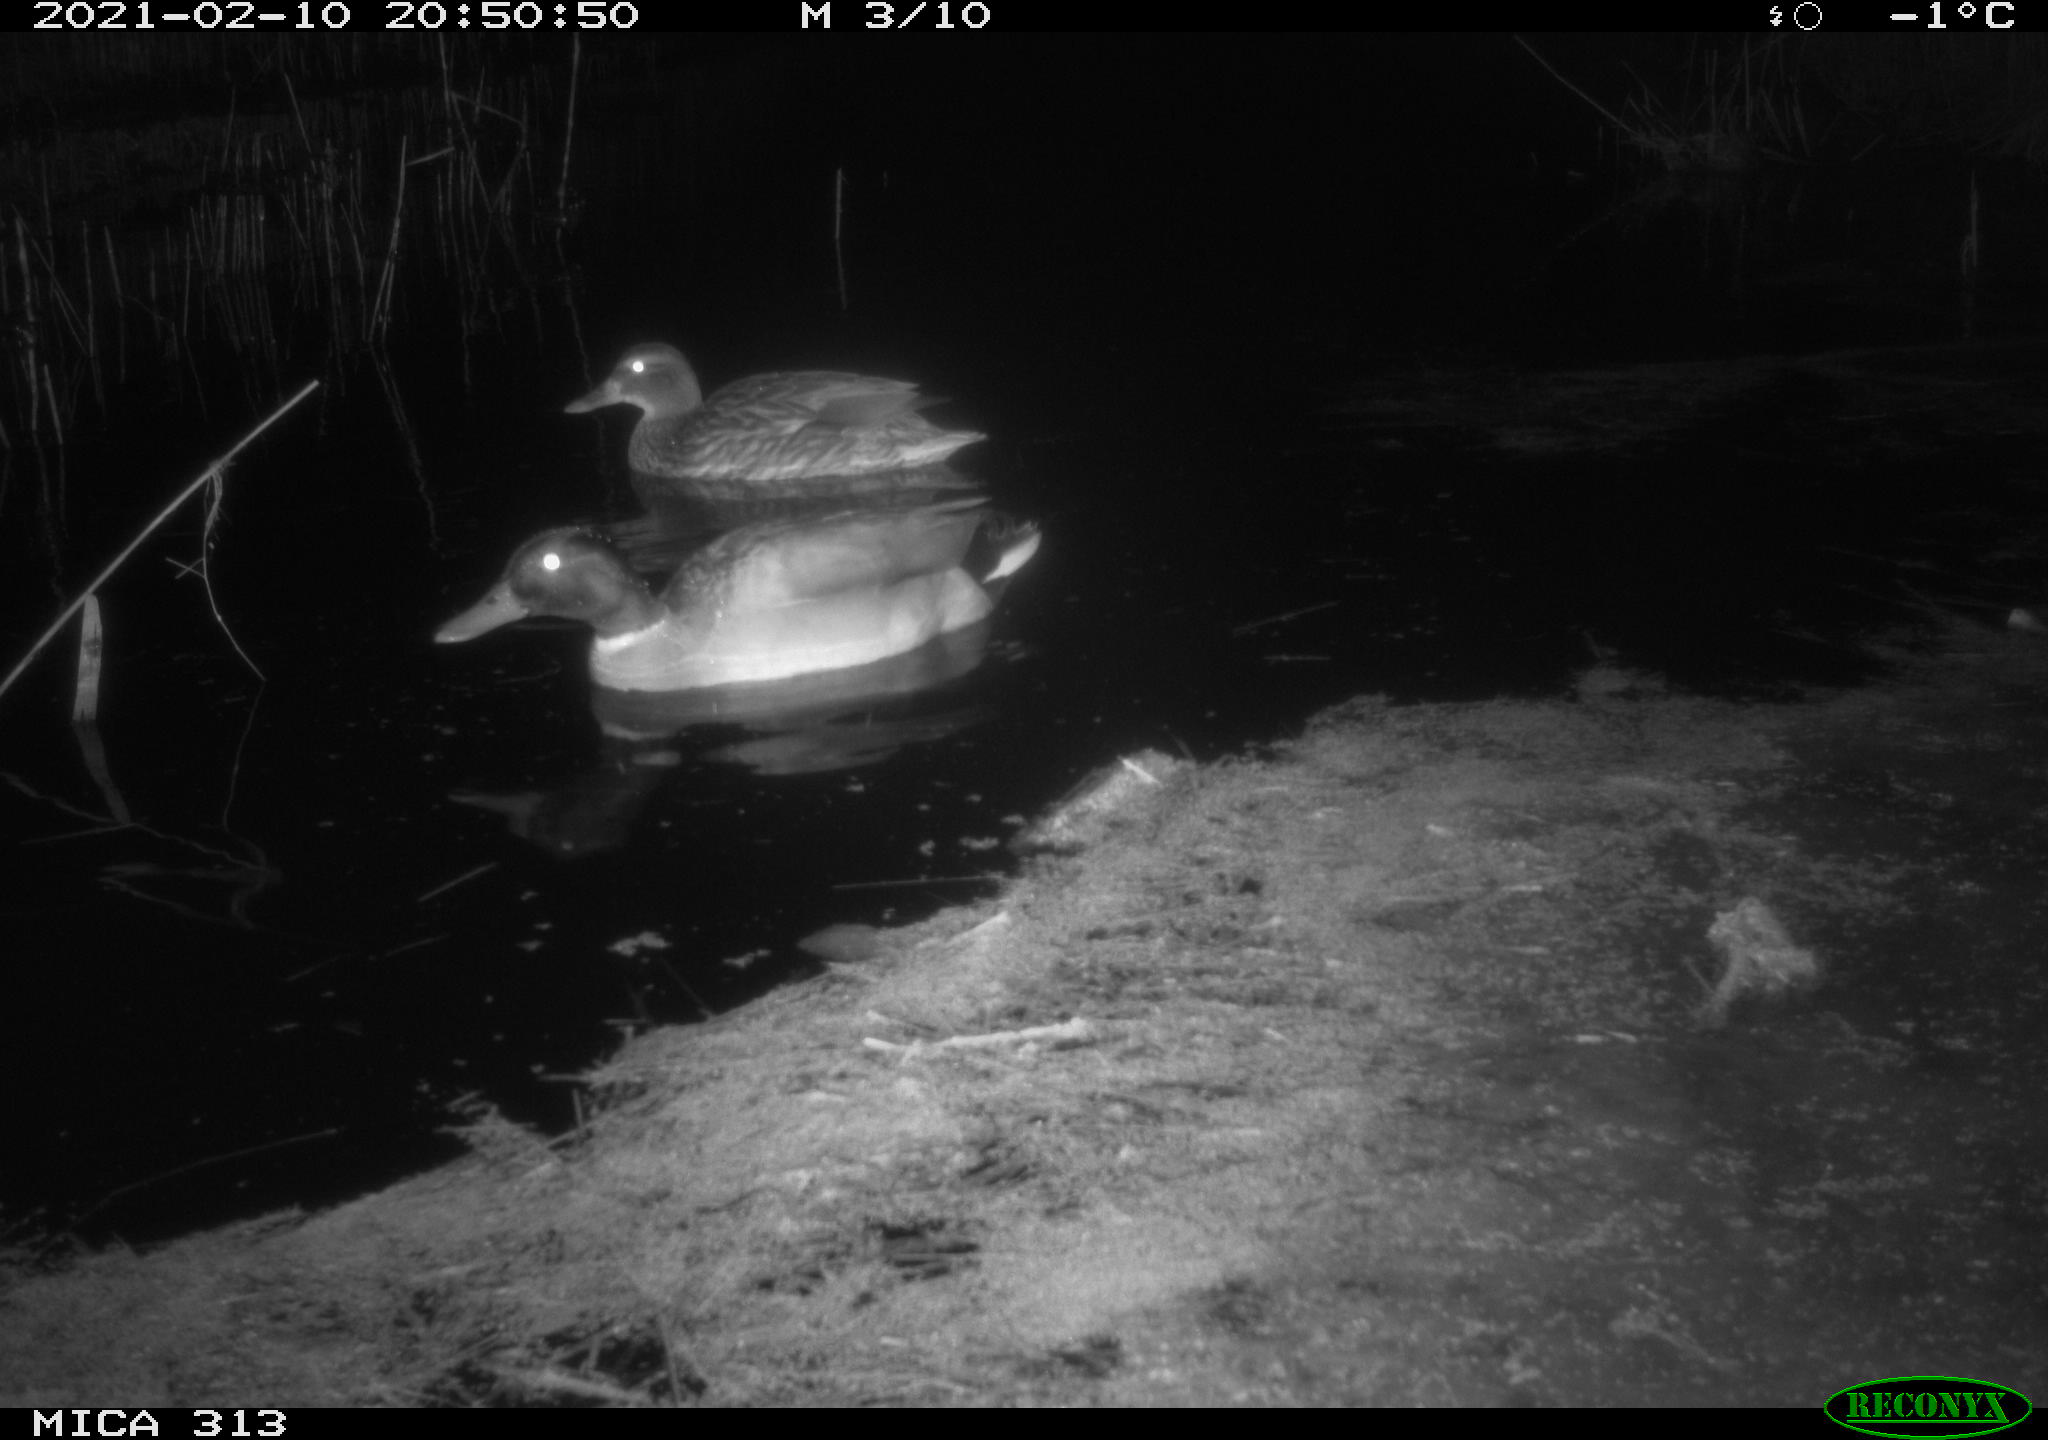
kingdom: Animalia
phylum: Chordata
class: Aves
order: Anseriformes
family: Anatidae
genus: Anas
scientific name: Anas
